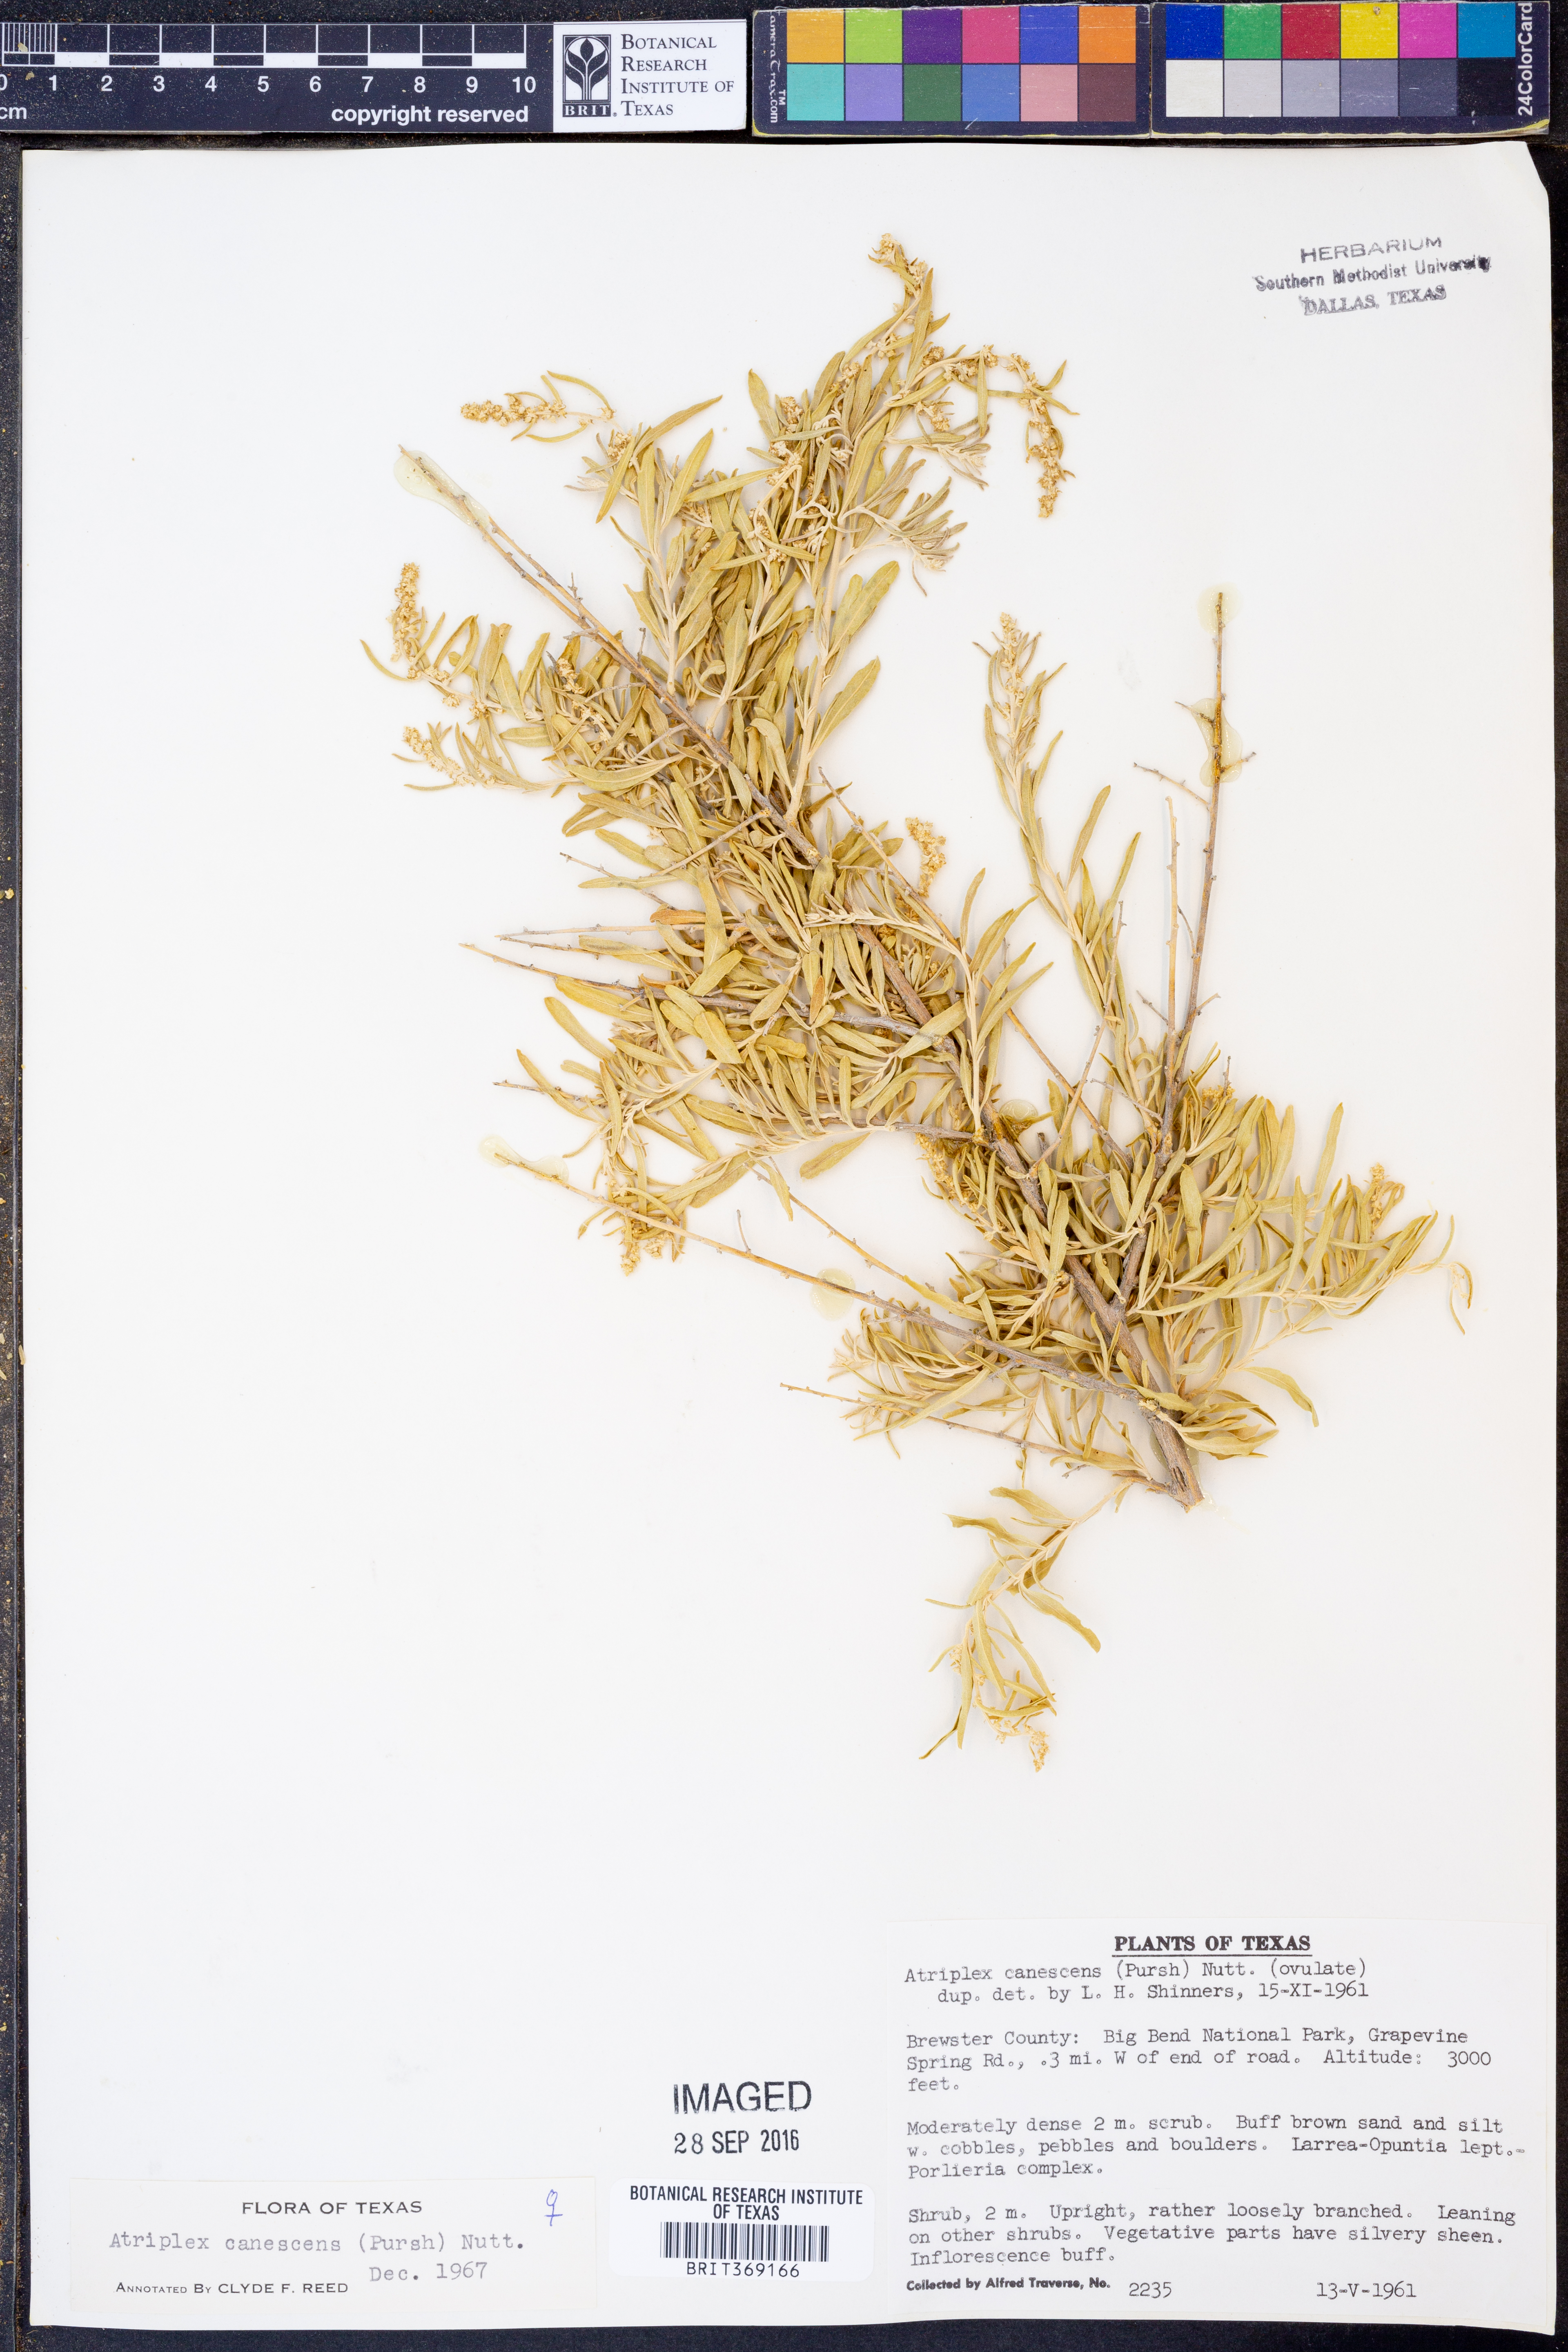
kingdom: Plantae
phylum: Tracheophyta
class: Magnoliopsida
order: Caryophyllales
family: Amaranthaceae
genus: Atriplex
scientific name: Atriplex canescens
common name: Four-wing saltbush
